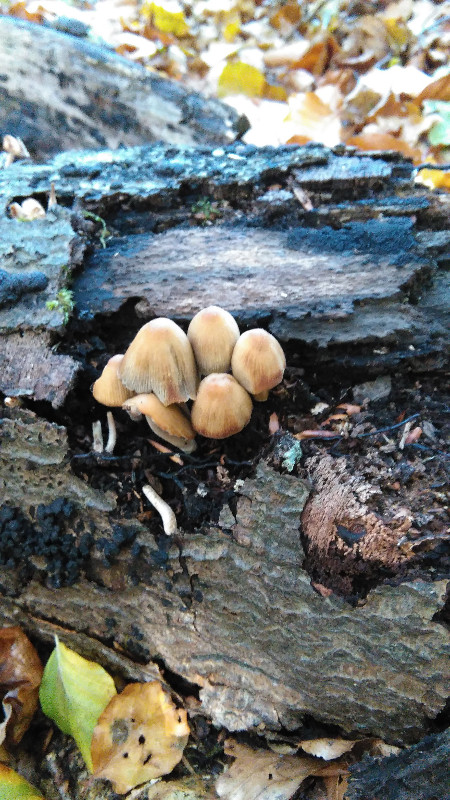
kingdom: Fungi
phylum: Basidiomycota
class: Agaricomycetes
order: Agaricales
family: Psathyrellaceae
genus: Coprinellus
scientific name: Coprinellus micaceus
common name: glimmer-blækhat
